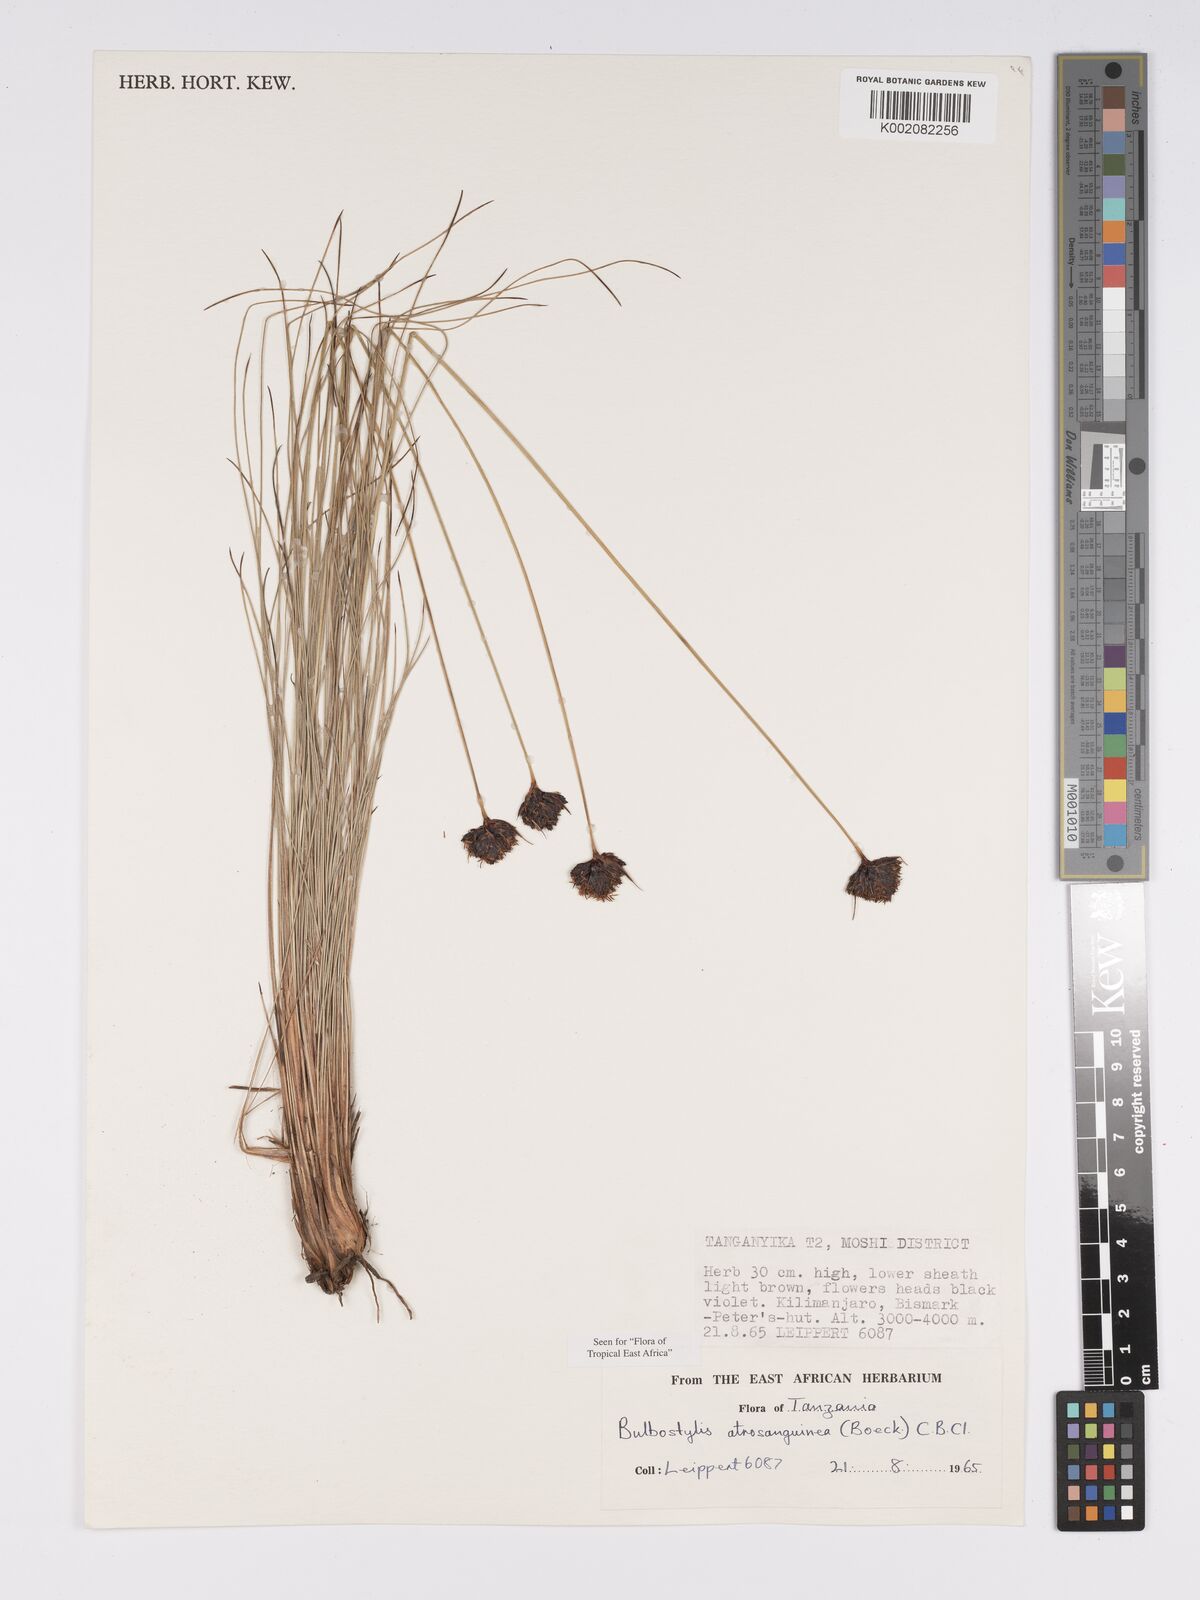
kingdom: Plantae
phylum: Tracheophyta
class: Liliopsida
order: Poales
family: Cyperaceae
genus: Bulbostylis
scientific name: Bulbostylis atrosanguinea
